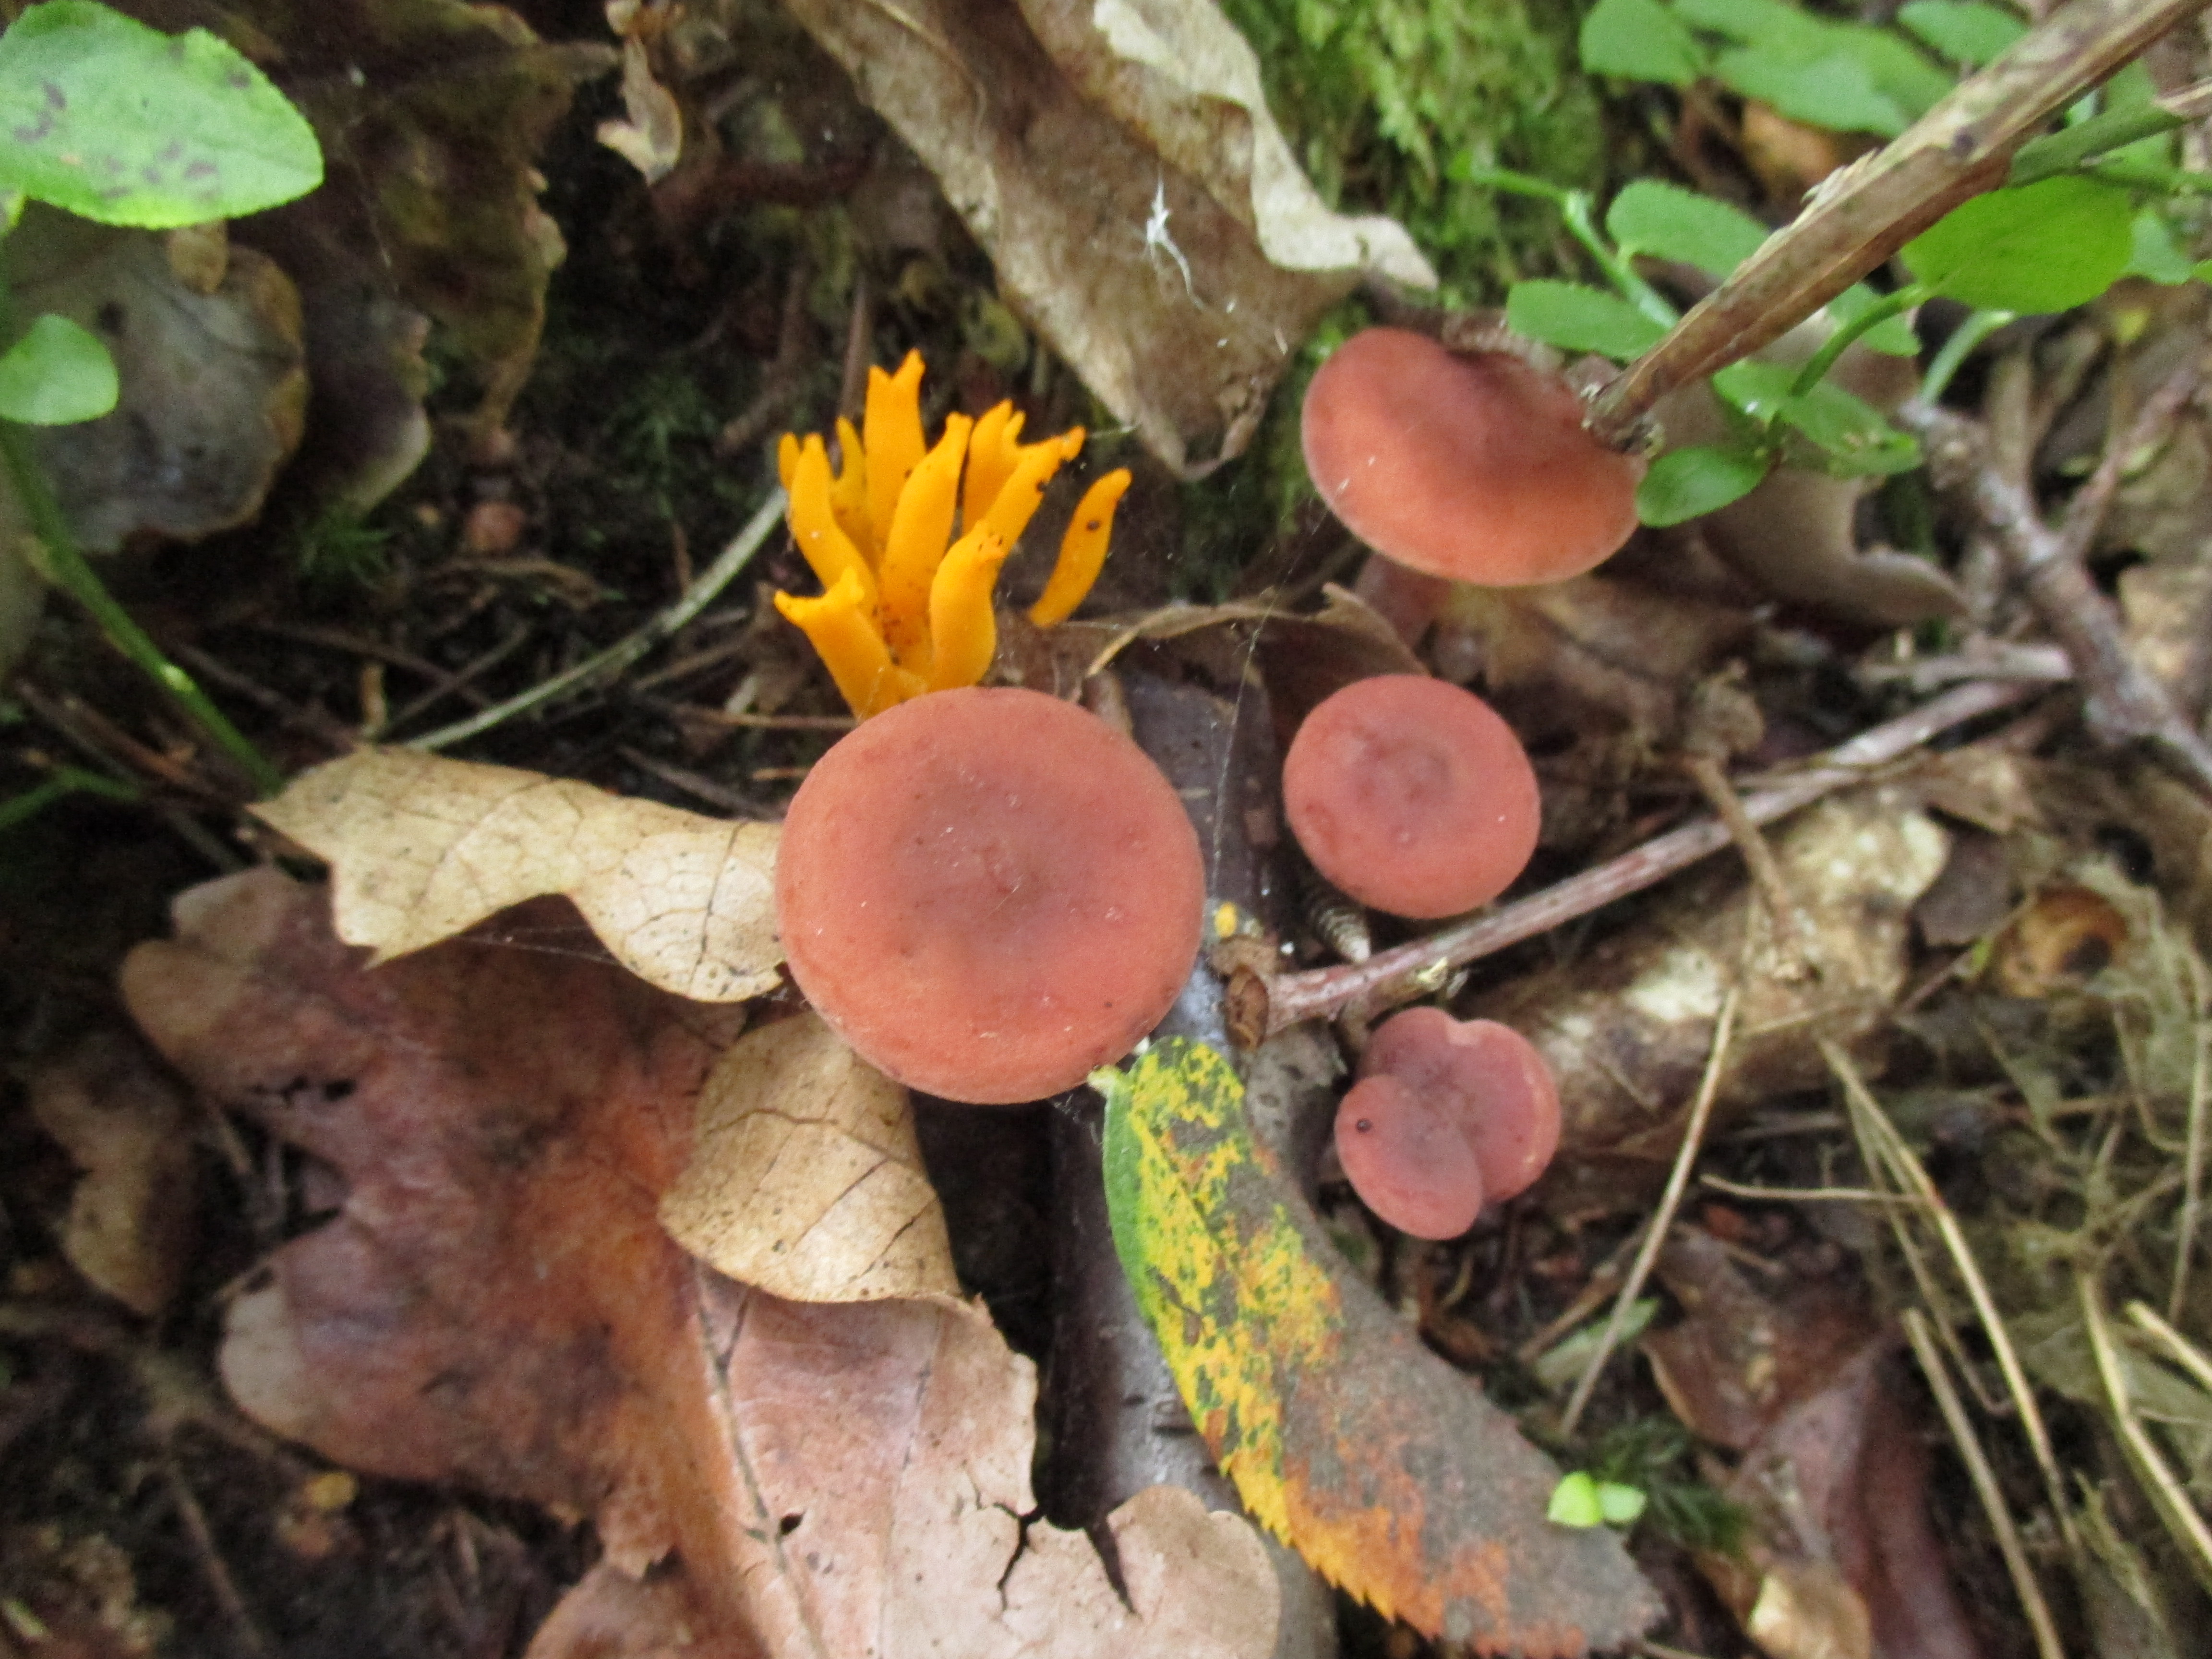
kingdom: Fungi
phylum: Basidiomycota
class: Dacrymycetes
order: Dacrymycetales
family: Dacrymycetaceae
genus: Calocera
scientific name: Calocera viscosa
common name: Yellow stagshorn
